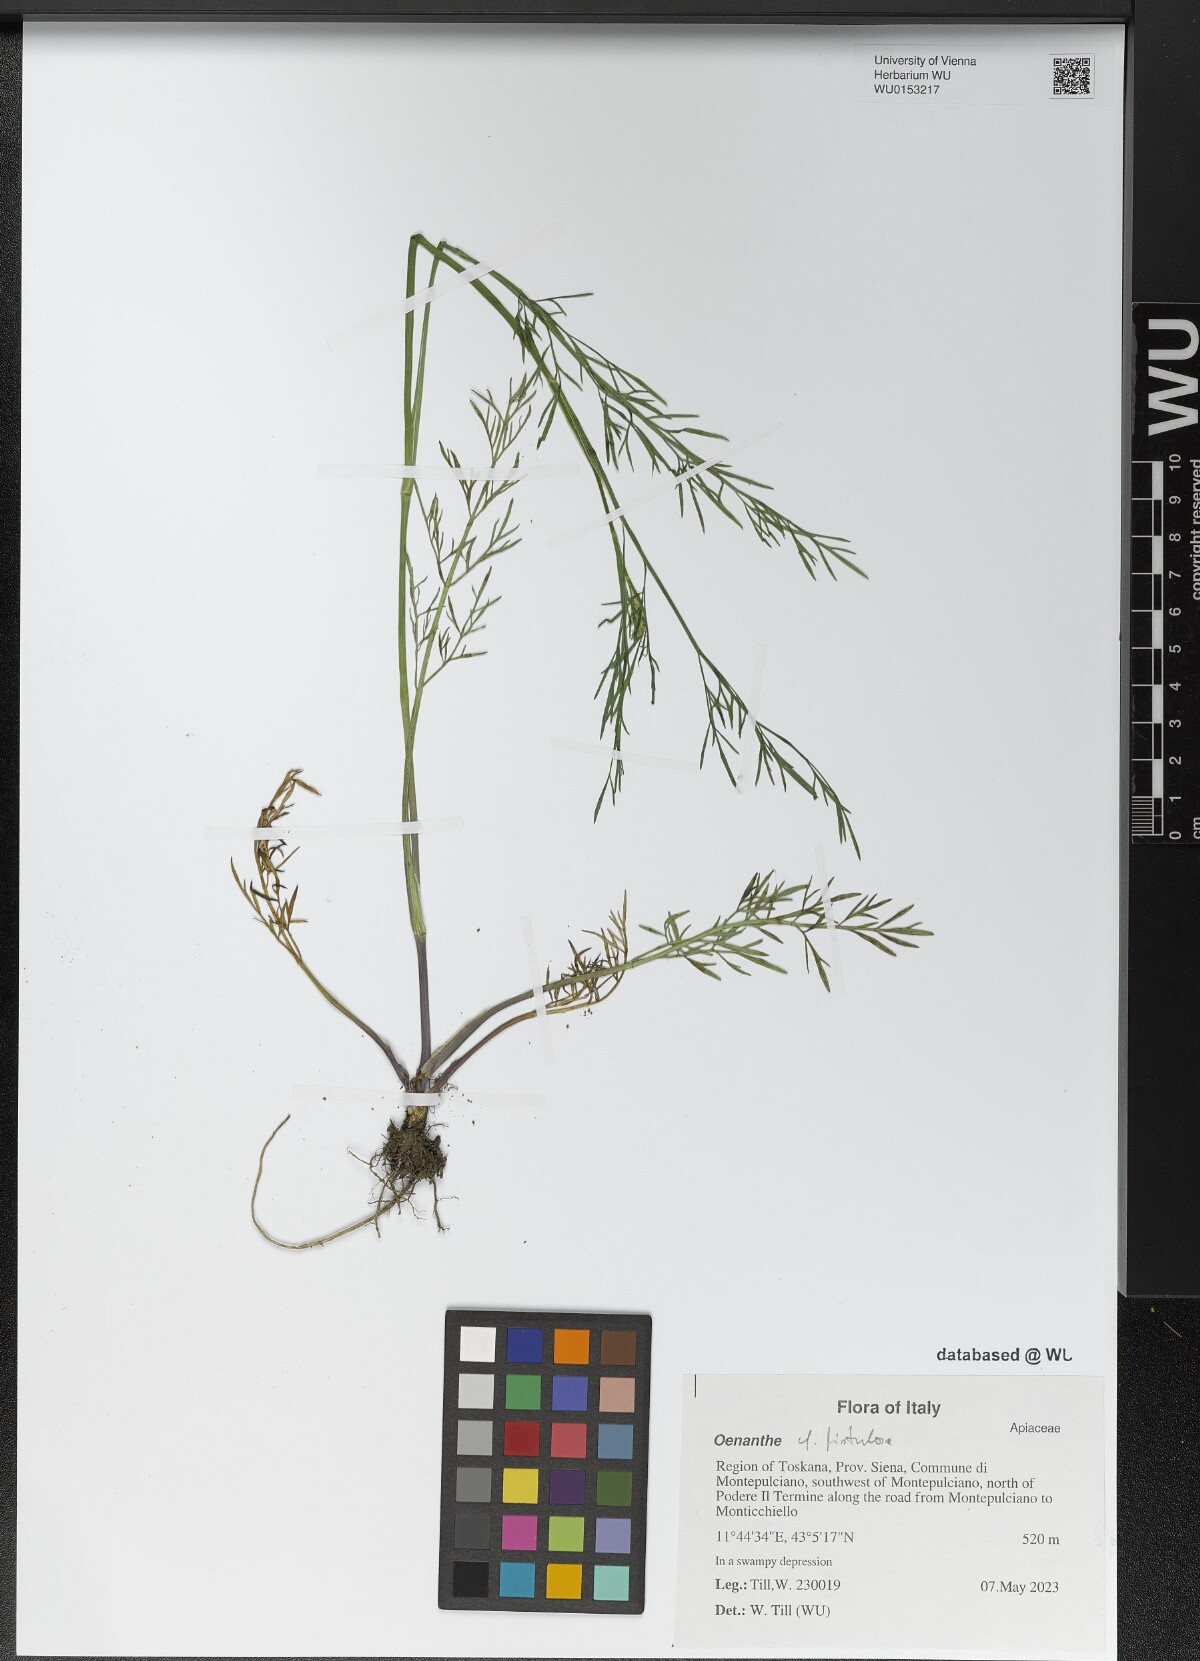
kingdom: Plantae
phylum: Tracheophyta
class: Magnoliopsida
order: Apiales
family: Apiaceae
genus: Oenanthe
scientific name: Oenanthe fistulosa
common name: Tubular water-dropwort
